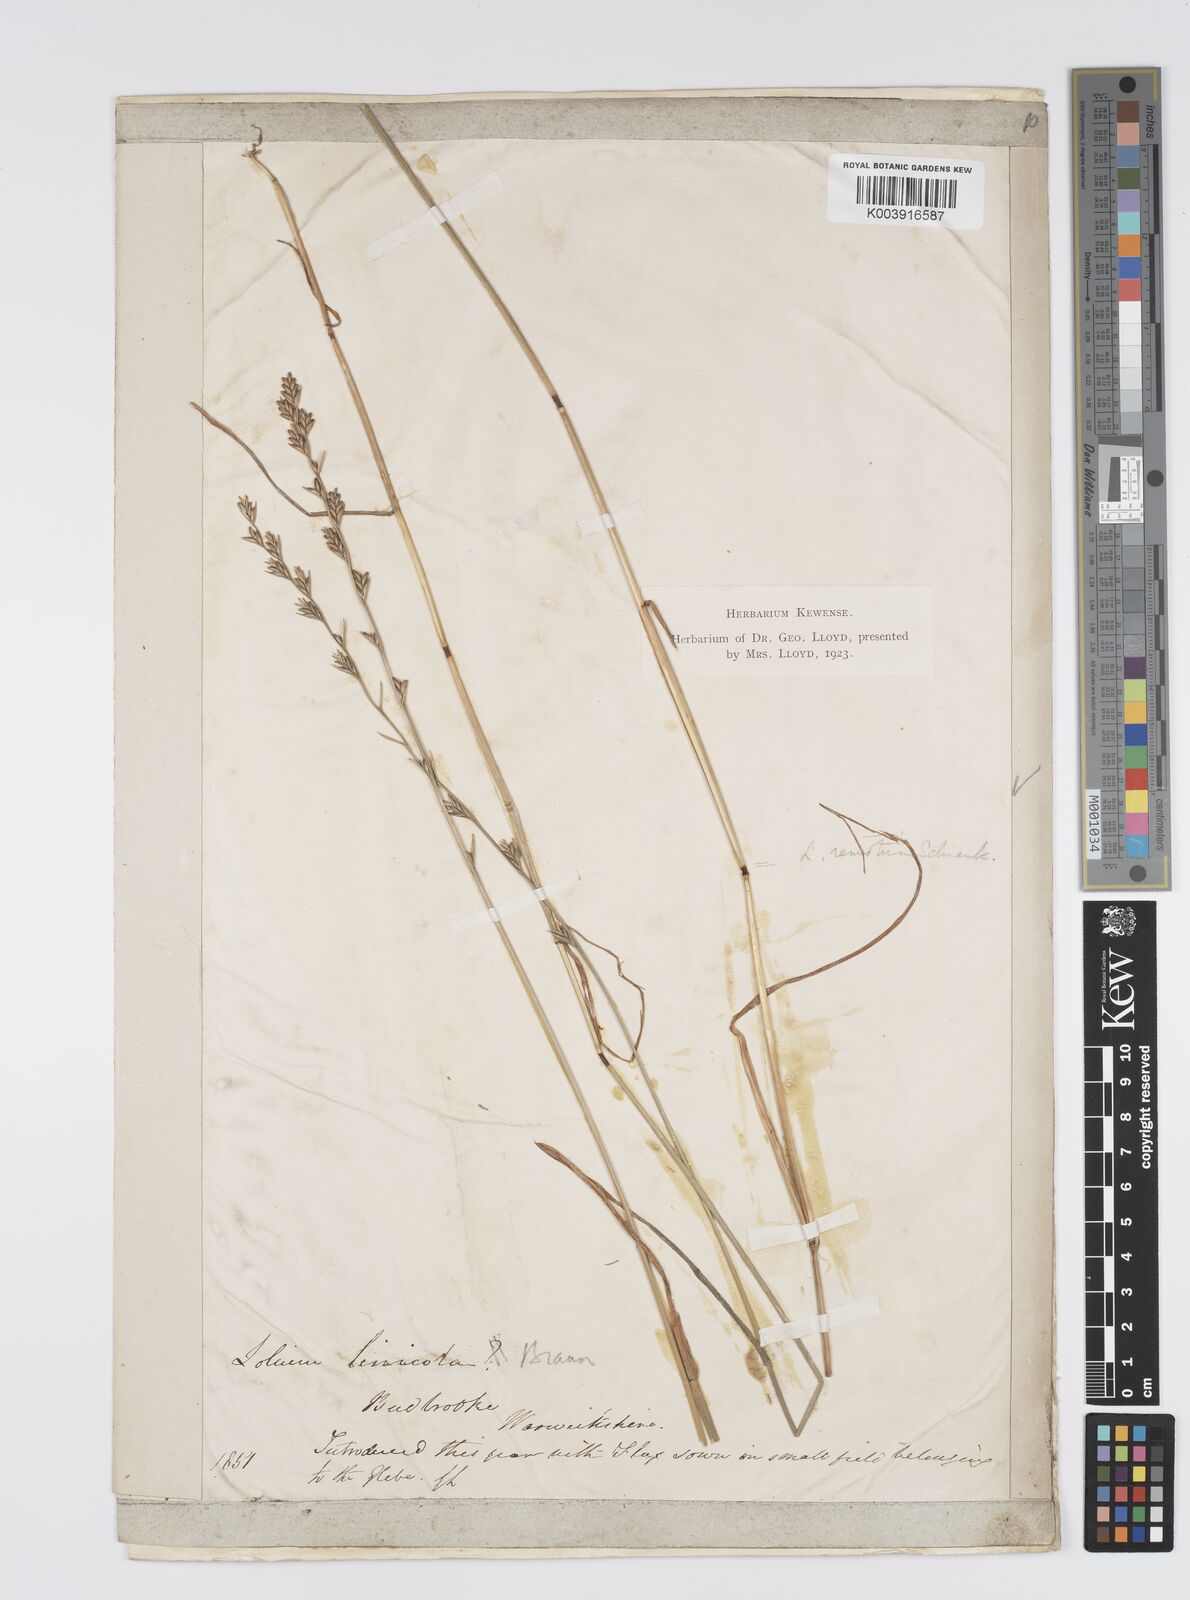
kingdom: Plantae
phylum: Tracheophyta
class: Liliopsida
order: Poales
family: Poaceae
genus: Lolium
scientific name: Lolium remotum
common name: Flaxfield rye-grass
